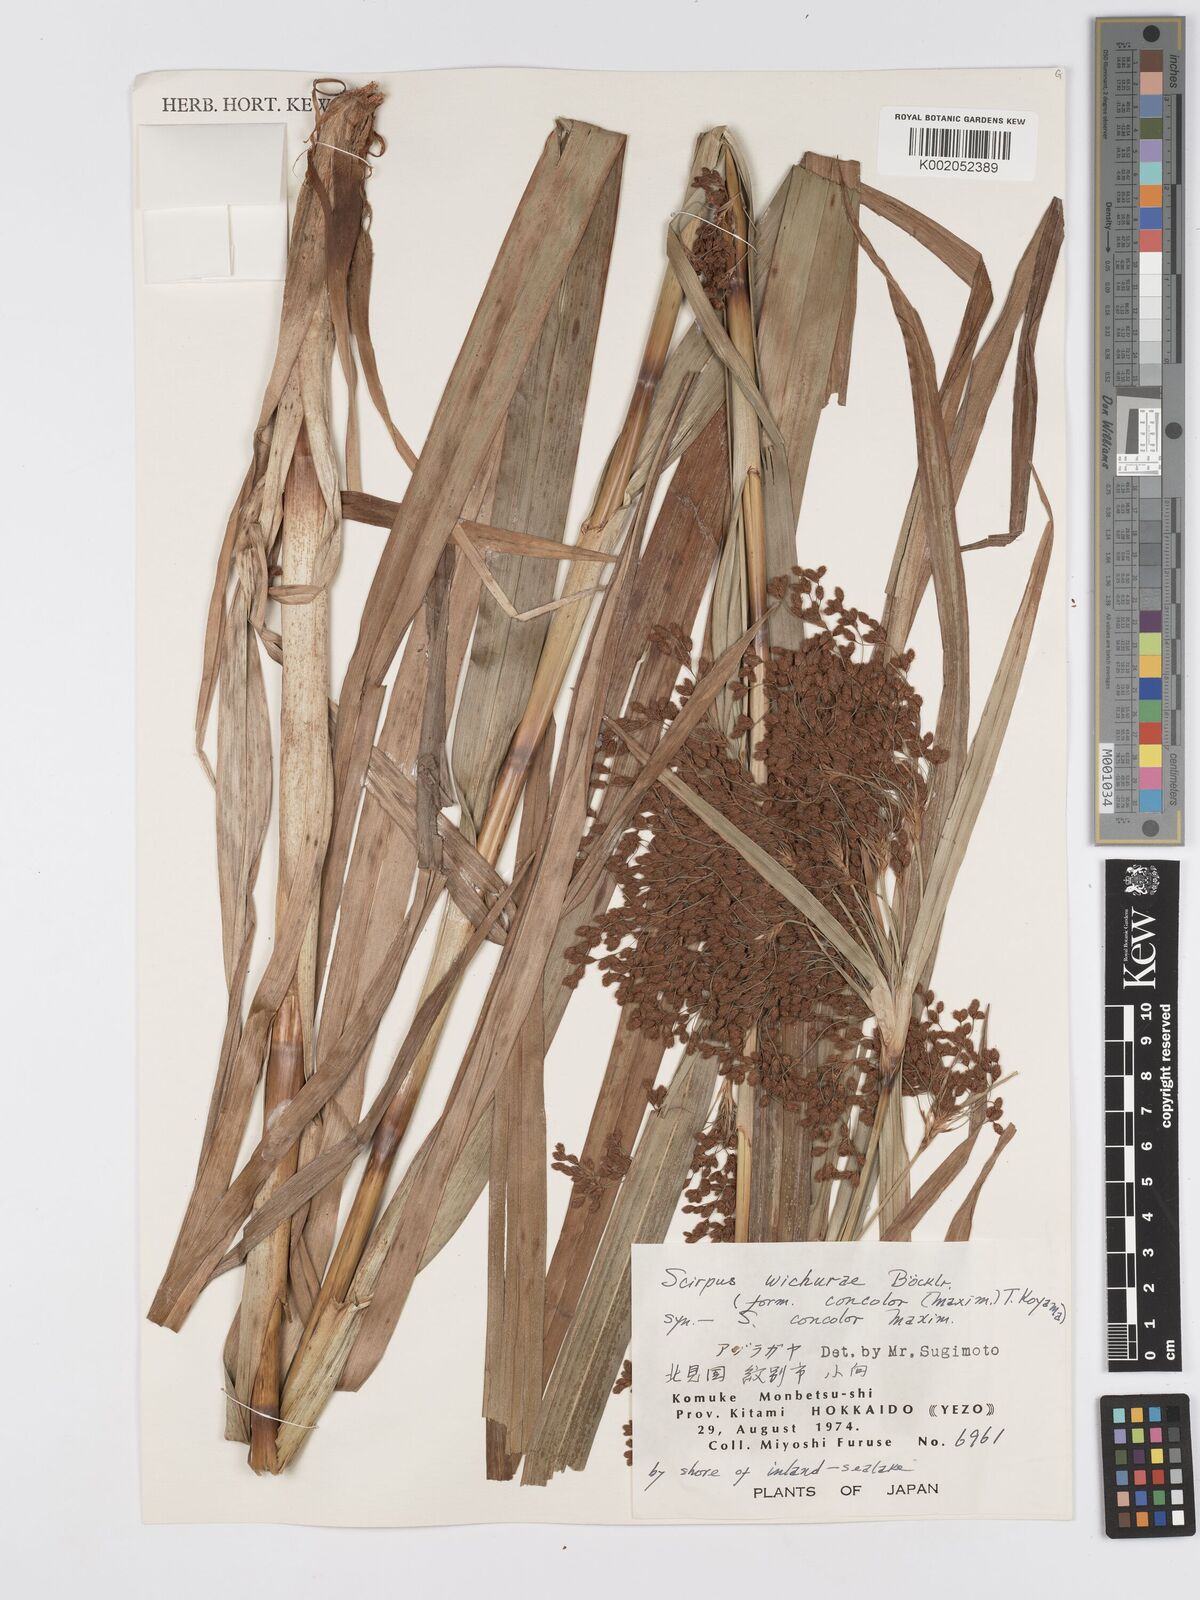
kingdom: Plantae
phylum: Tracheophyta
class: Liliopsida
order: Poales
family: Cyperaceae
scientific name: Cyperaceae
